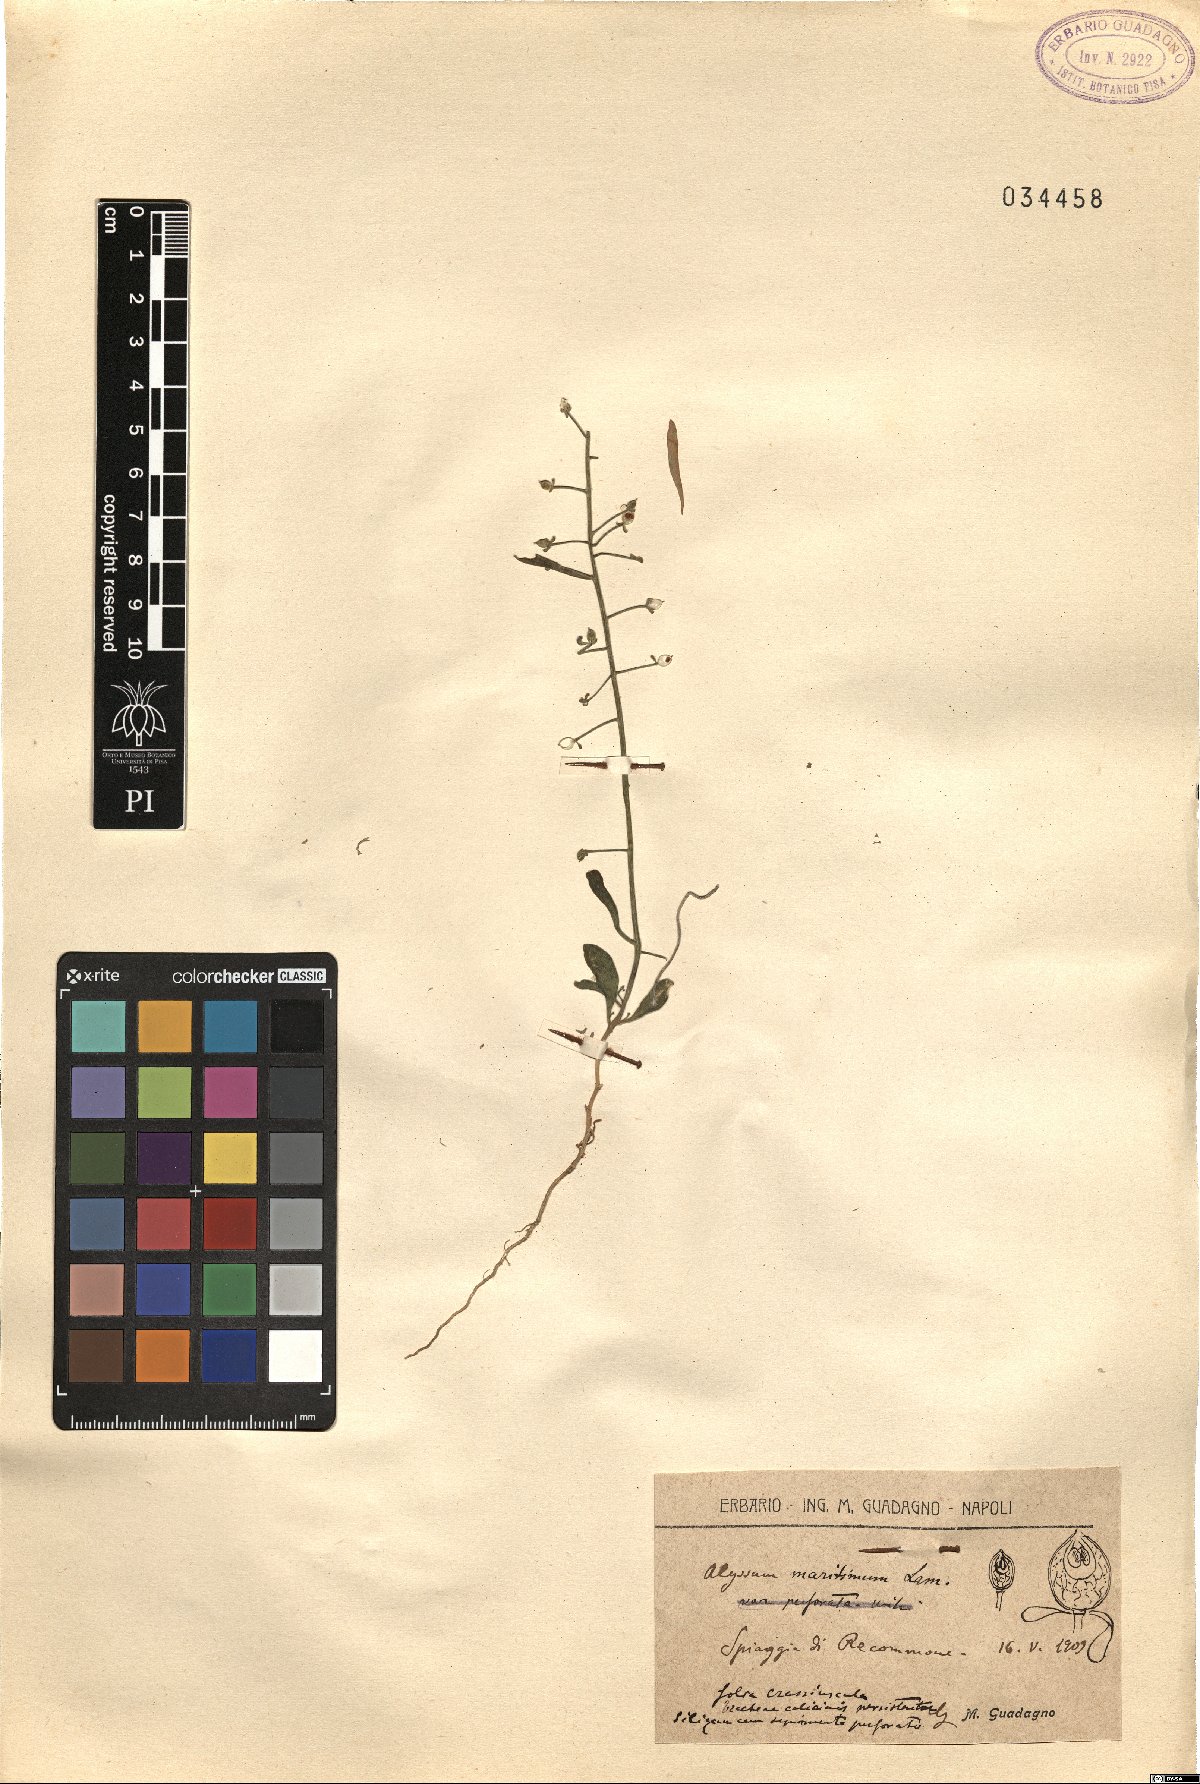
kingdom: Plantae
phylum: Tracheophyta
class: Magnoliopsida
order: Brassicales
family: Brassicaceae
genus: Lobularia
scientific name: Lobularia maritima
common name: Sweet alison
